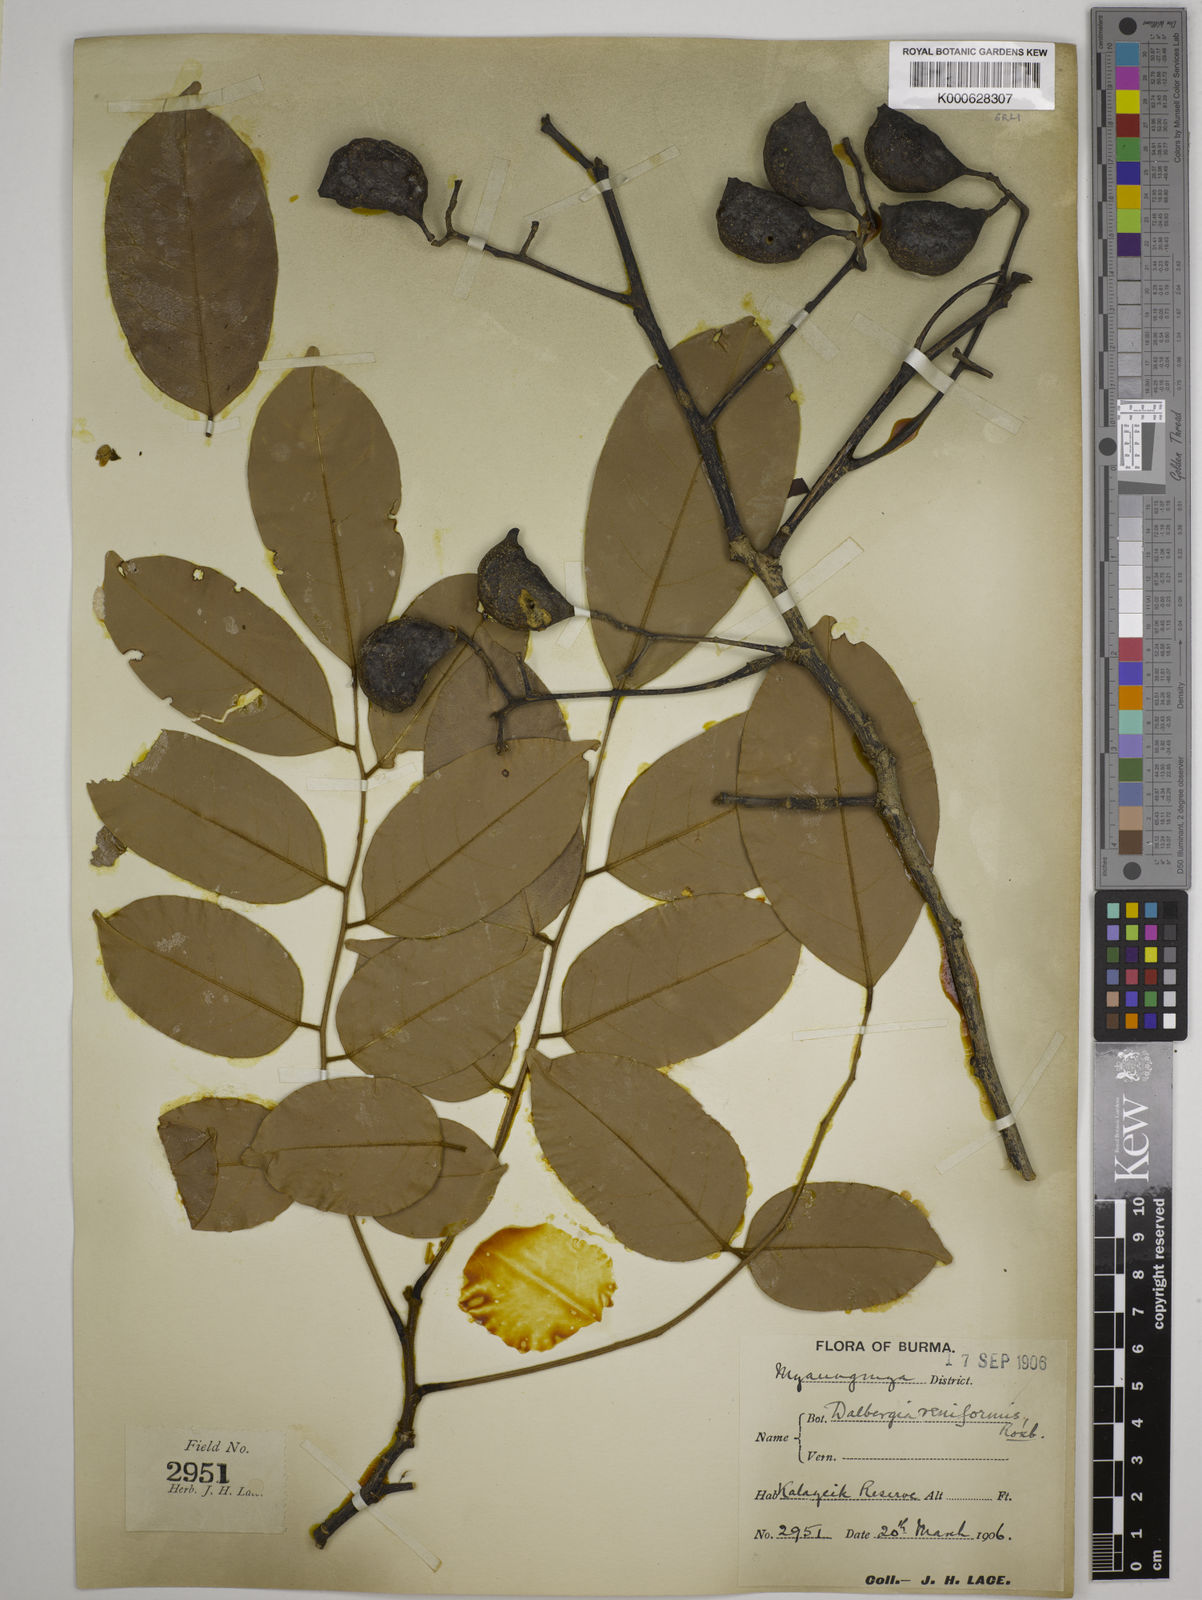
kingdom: Plantae
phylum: Tracheophyta
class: Magnoliopsida
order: Fabales
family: Fabaceae
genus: Dalbergia
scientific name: Dalbergia reniformis
